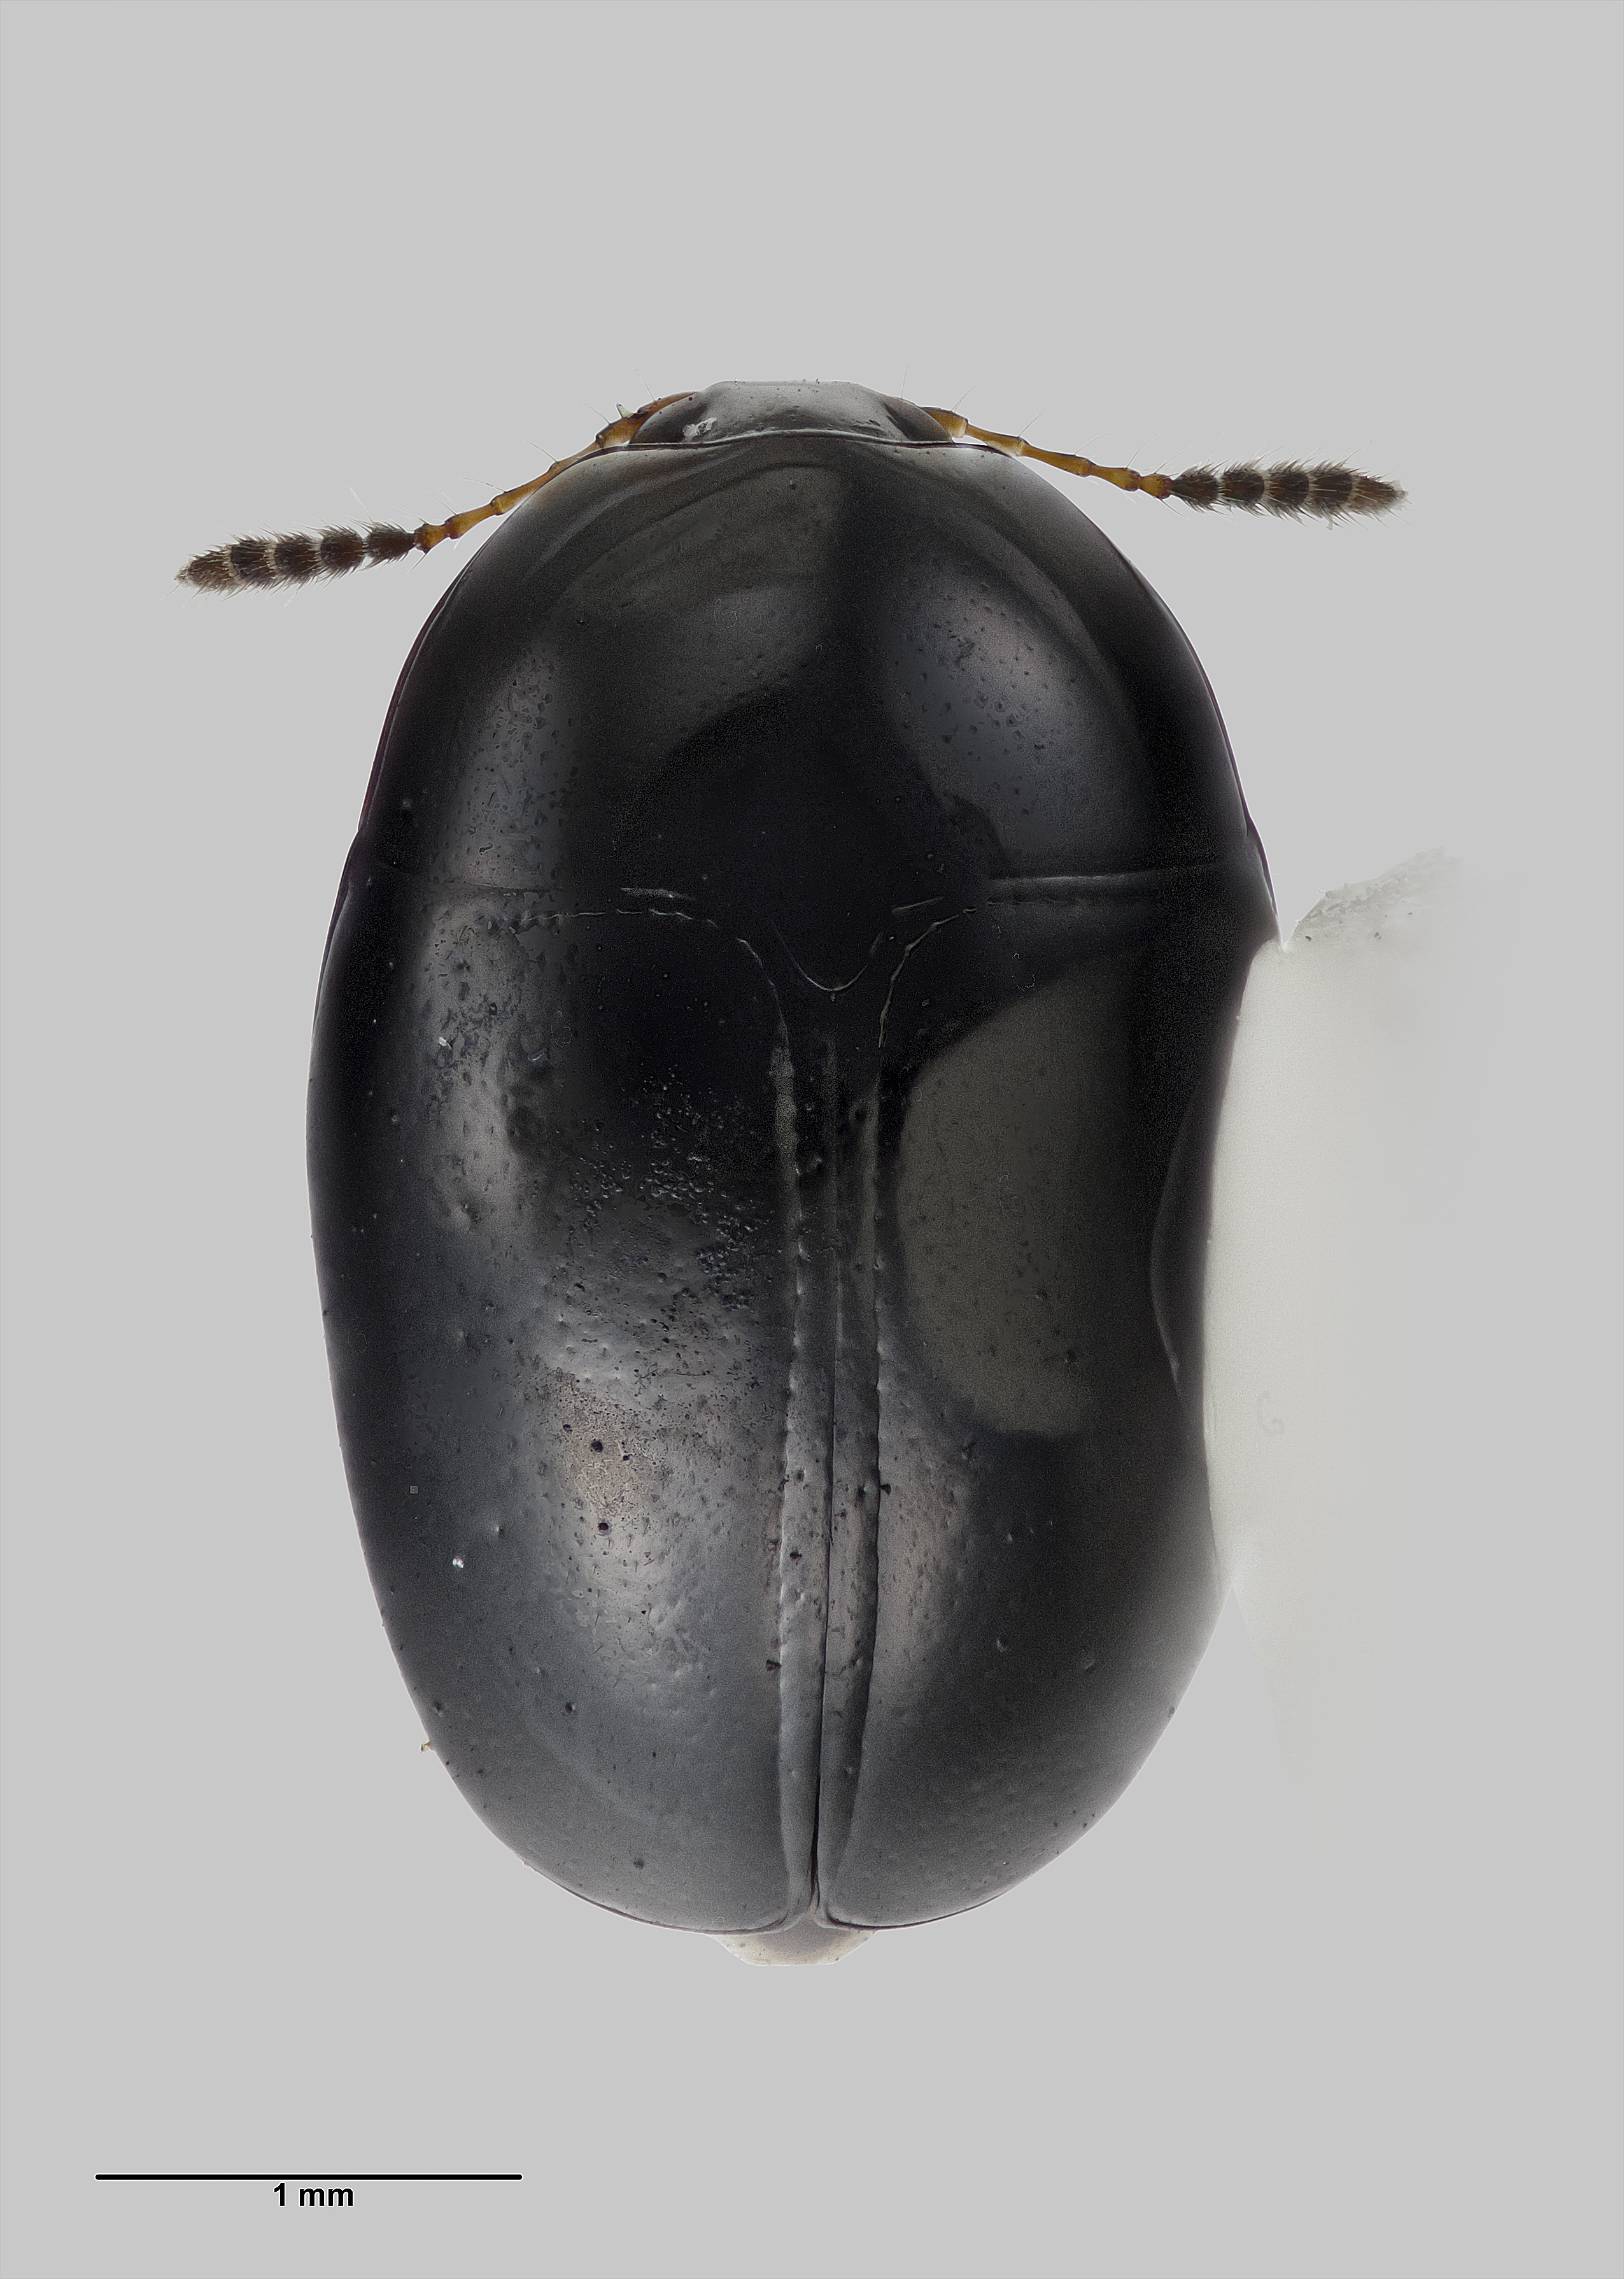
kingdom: Animalia
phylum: Arthropoda
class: Insecta
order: Coleoptera
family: Staphylinidae
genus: Cyparium
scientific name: Cyparium thorpei
